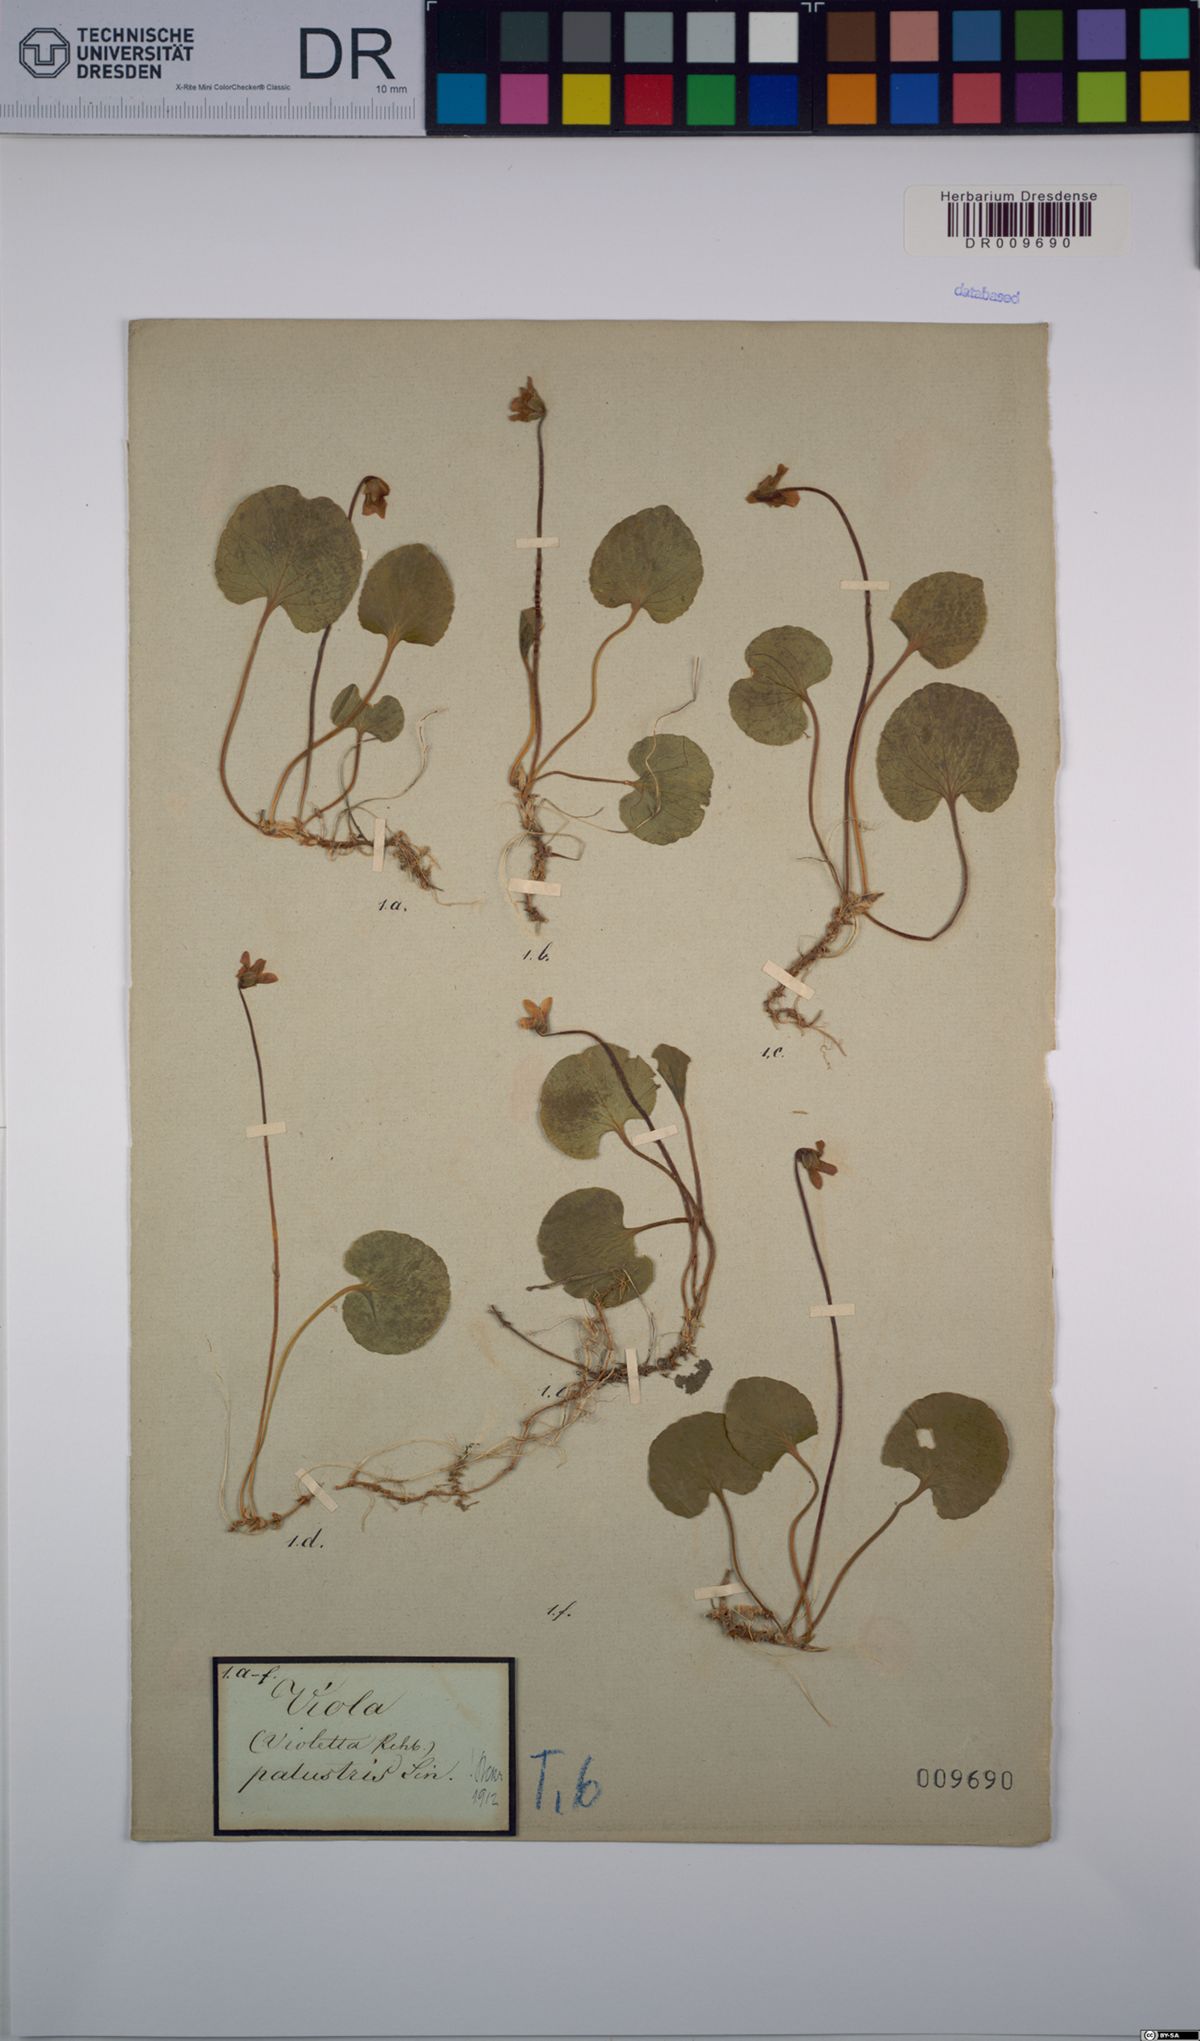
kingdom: Plantae
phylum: Tracheophyta
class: Magnoliopsida
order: Malpighiales
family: Violaceae
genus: Viola
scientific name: Viola palustris
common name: Marsh violet
